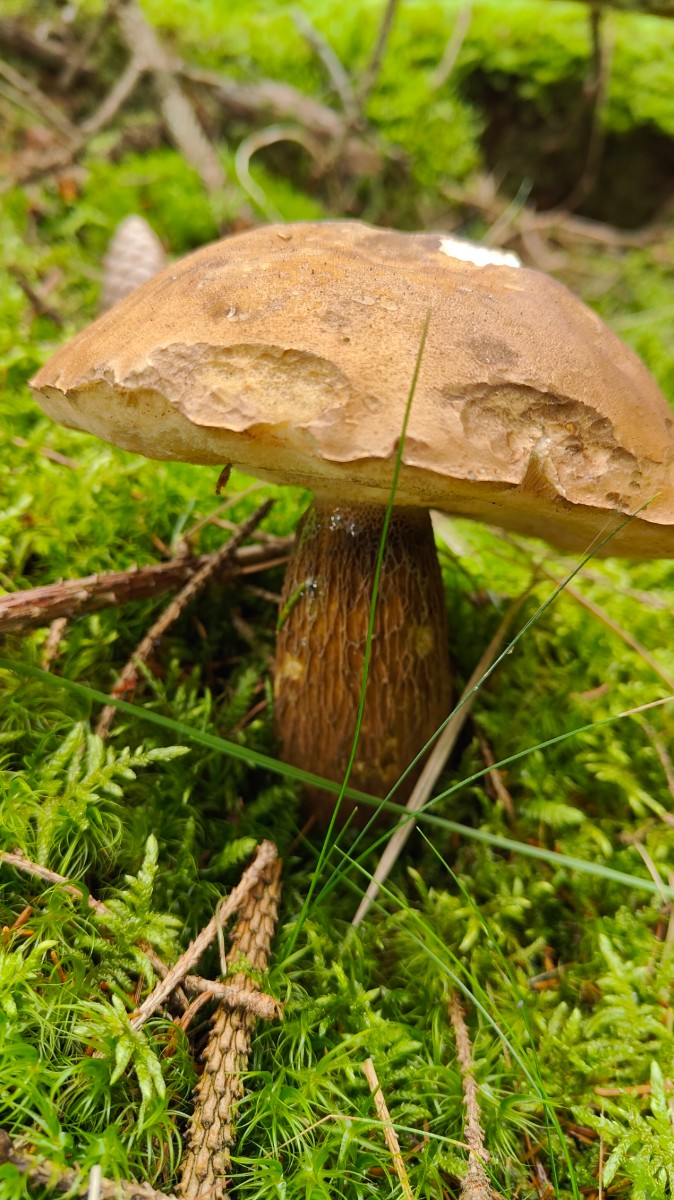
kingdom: Fungi
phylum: Basidiomycota
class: Agaricomycetes
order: Boletales
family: Boletaceae
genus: Tylopilus
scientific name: Tylopilus felleus
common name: galderørhat
